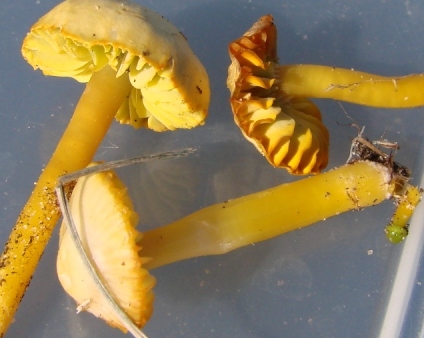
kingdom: Fungi
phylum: Basidiomycota
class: Agaricomycetes
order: Agaricales
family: Hygrophoraceae
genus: Gliophorus
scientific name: Gliophorus psittacinus
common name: papegøje-vokshat
